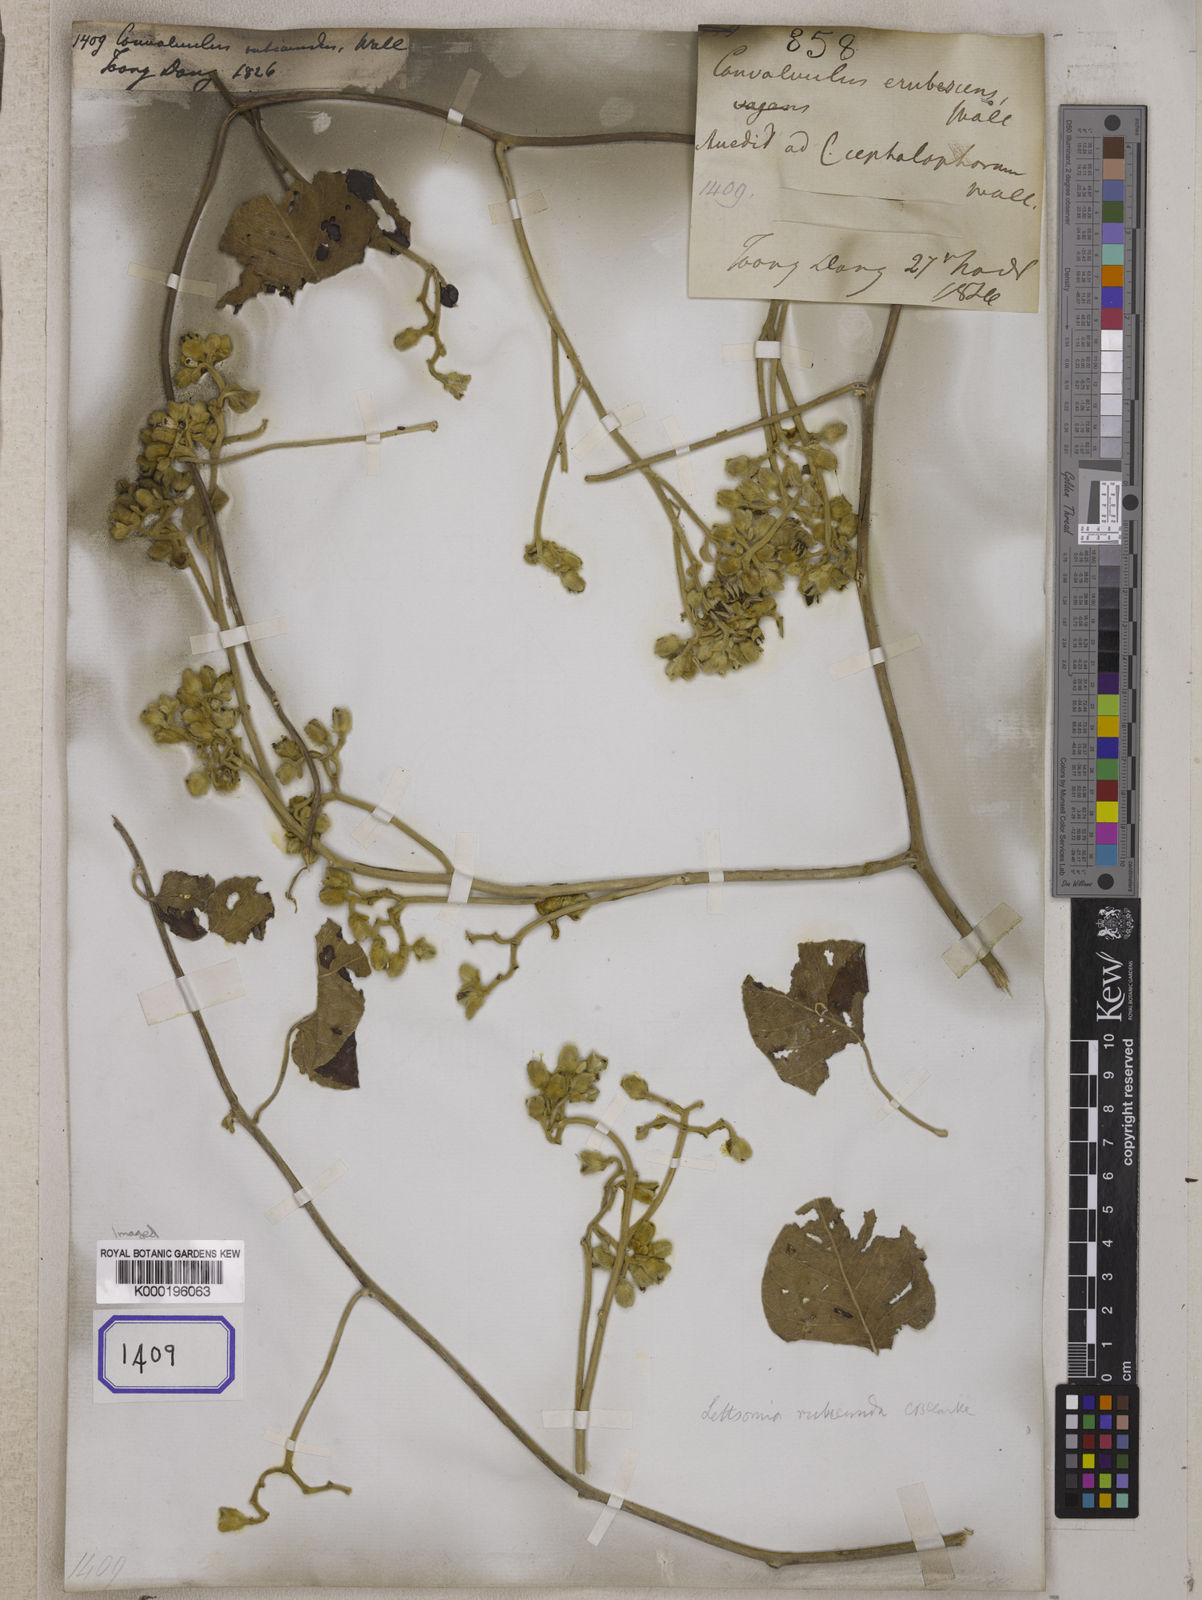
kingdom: Plantae
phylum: Tracheophyta
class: Magnoliopsida
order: Solanales
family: Convolvulaceae
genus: Argyreia
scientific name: Argyreia rubicunda
